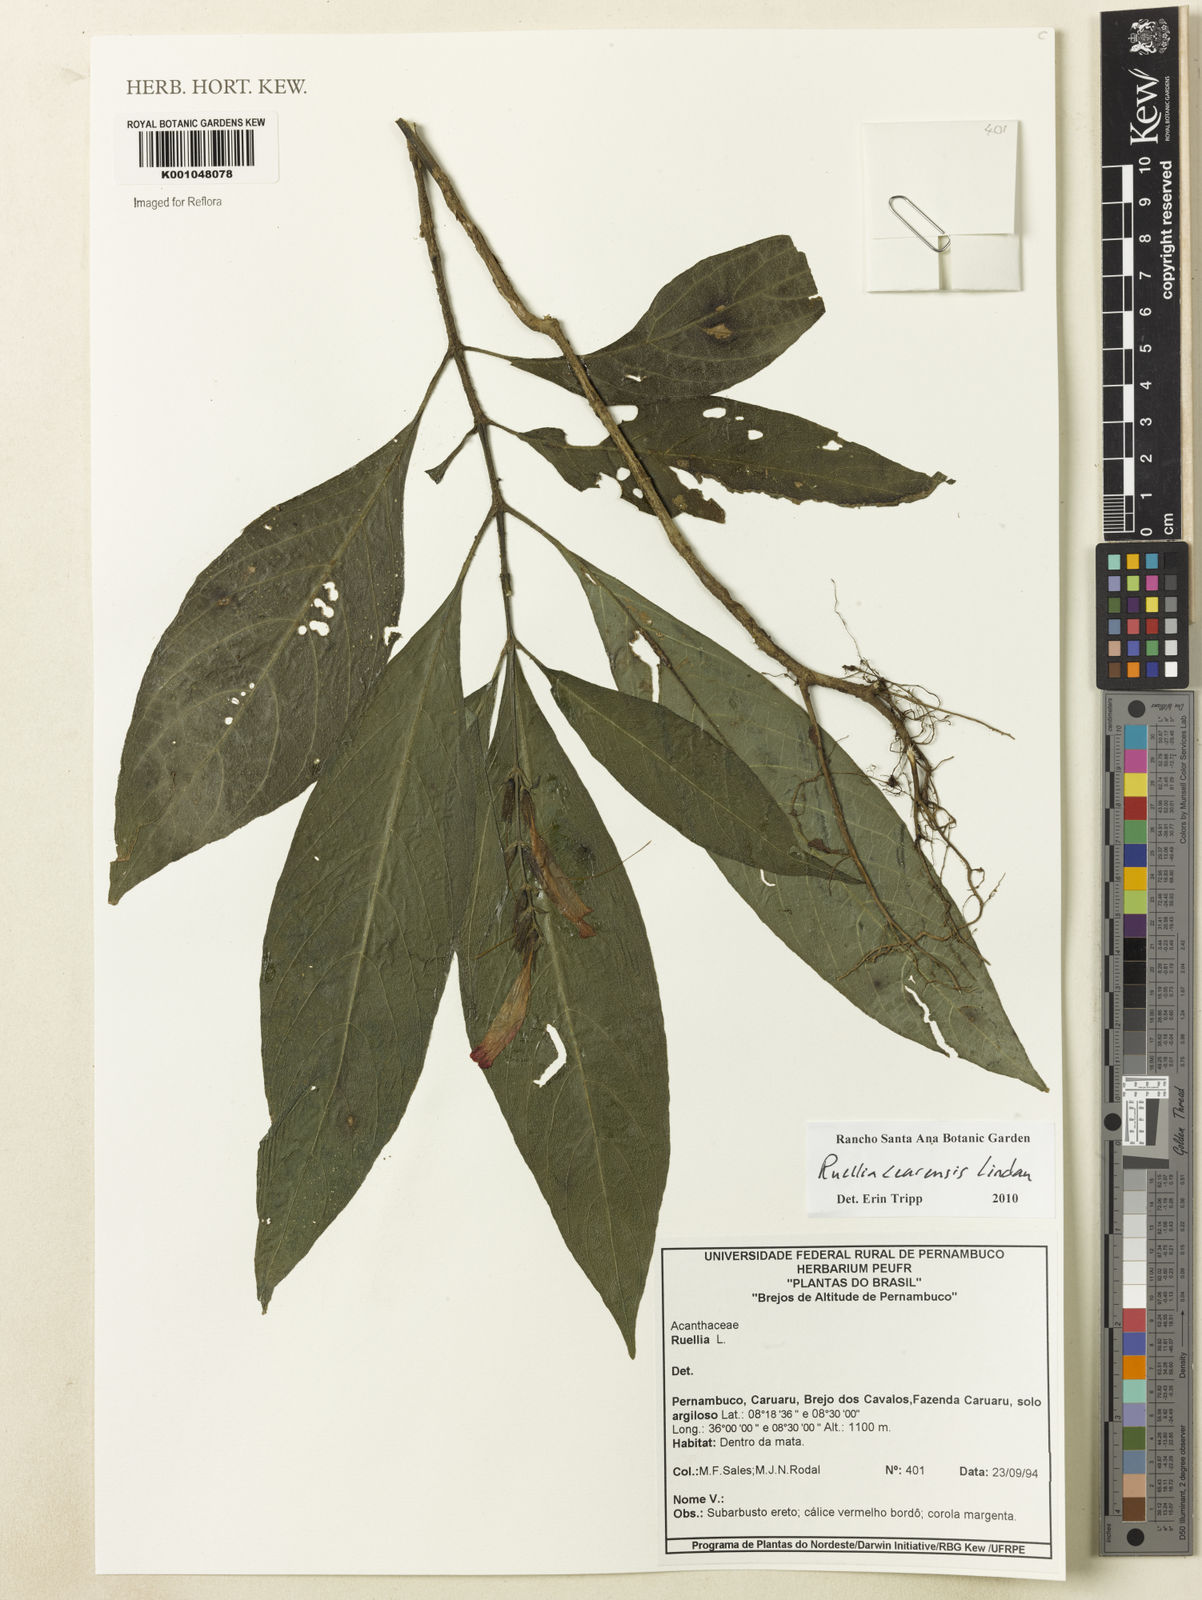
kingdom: Plantae
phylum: Tracheophyta
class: Magnoliopsida
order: Lamiales
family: Acanthaceae
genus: Ruellia
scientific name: Ruellia cearensis
